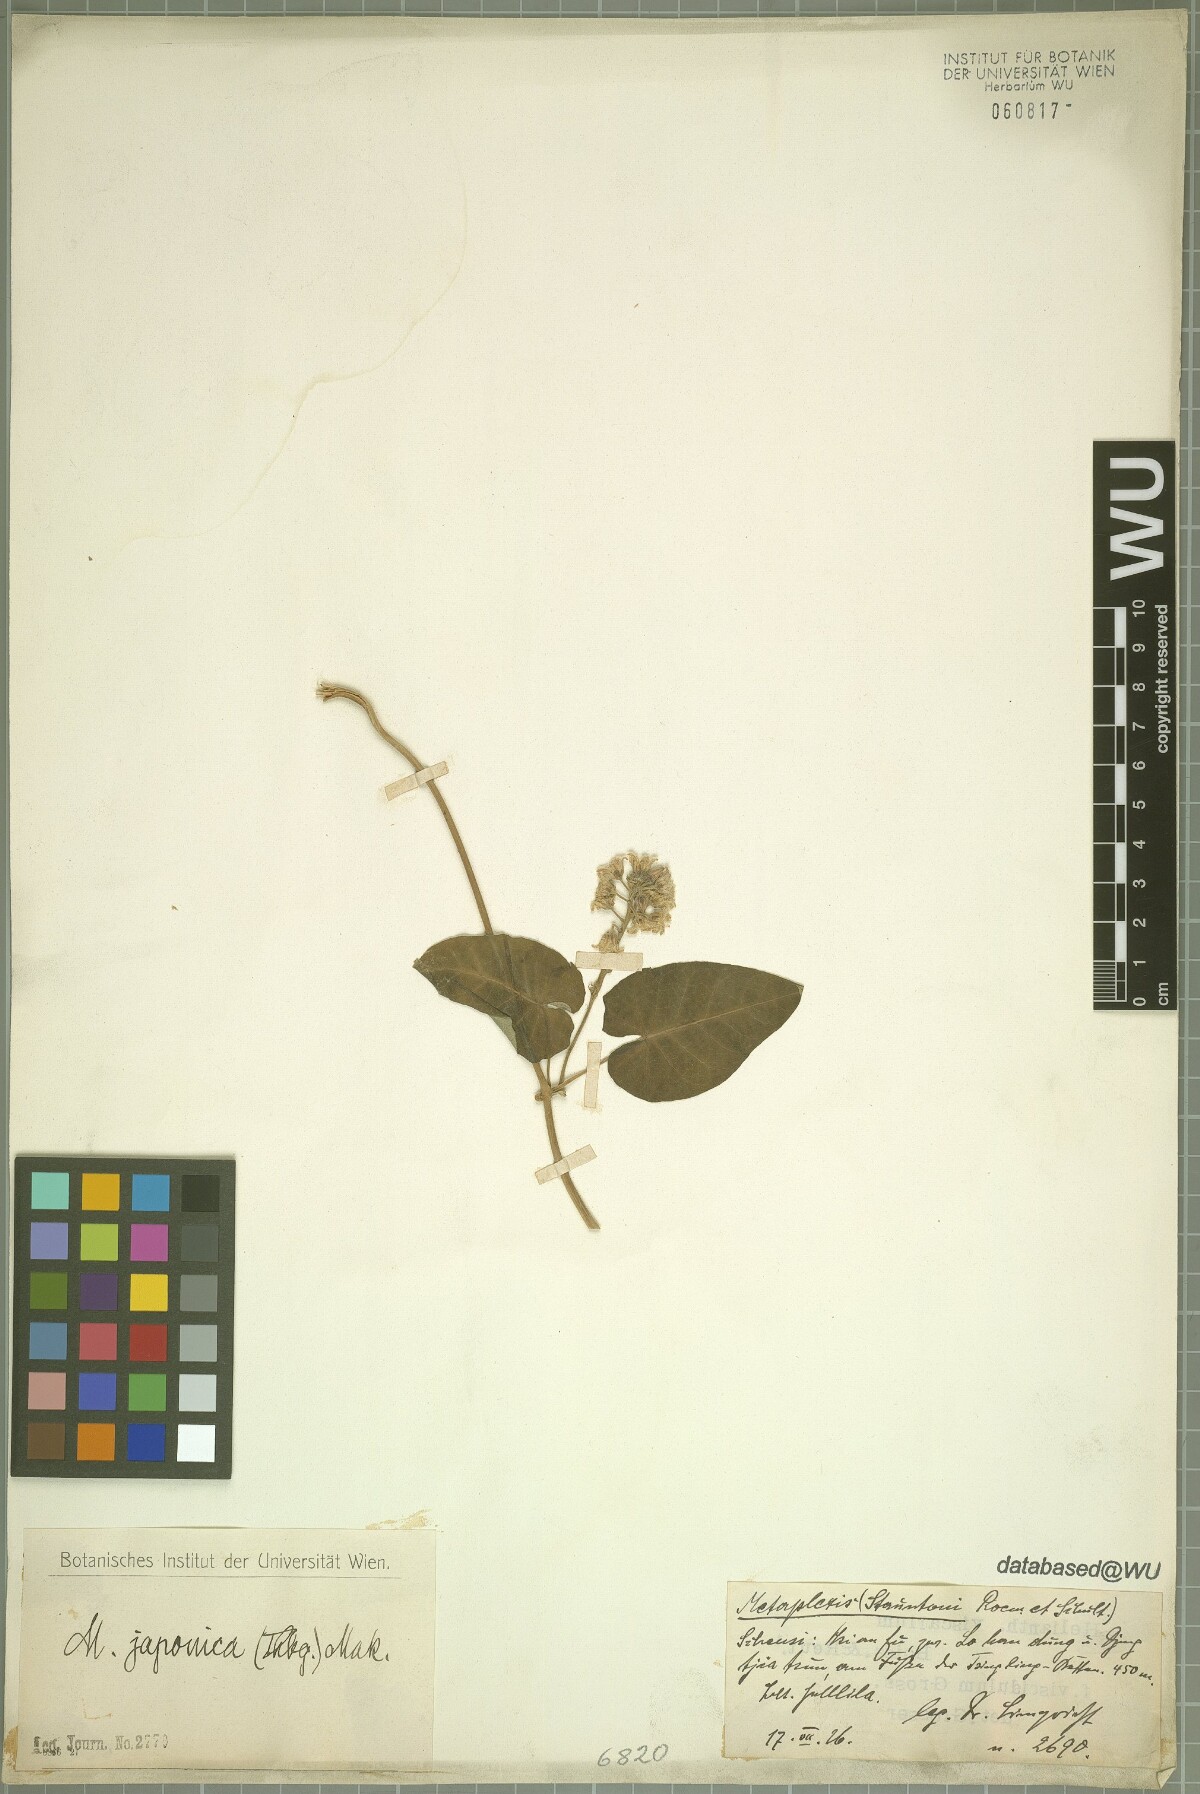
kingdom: Plantae
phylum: Tracheophyta
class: Magnoliopsida
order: Gentianales
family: Apocynaceae
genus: Cynanchum
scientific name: Cynanchum rostellatum
